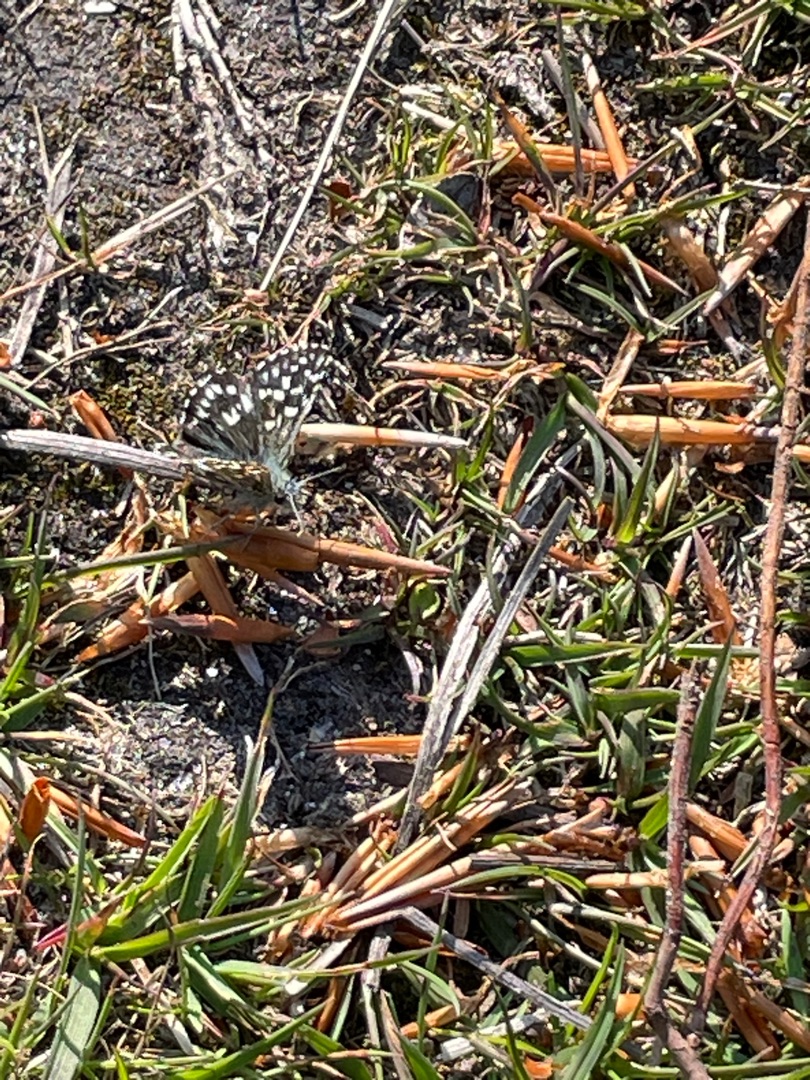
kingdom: Animalia
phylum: Arthropoda
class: Insecta
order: Lepidoptera
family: Hesperiidae
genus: Pyrgus
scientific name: Pyrgus malvae
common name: Spættet bredpande
